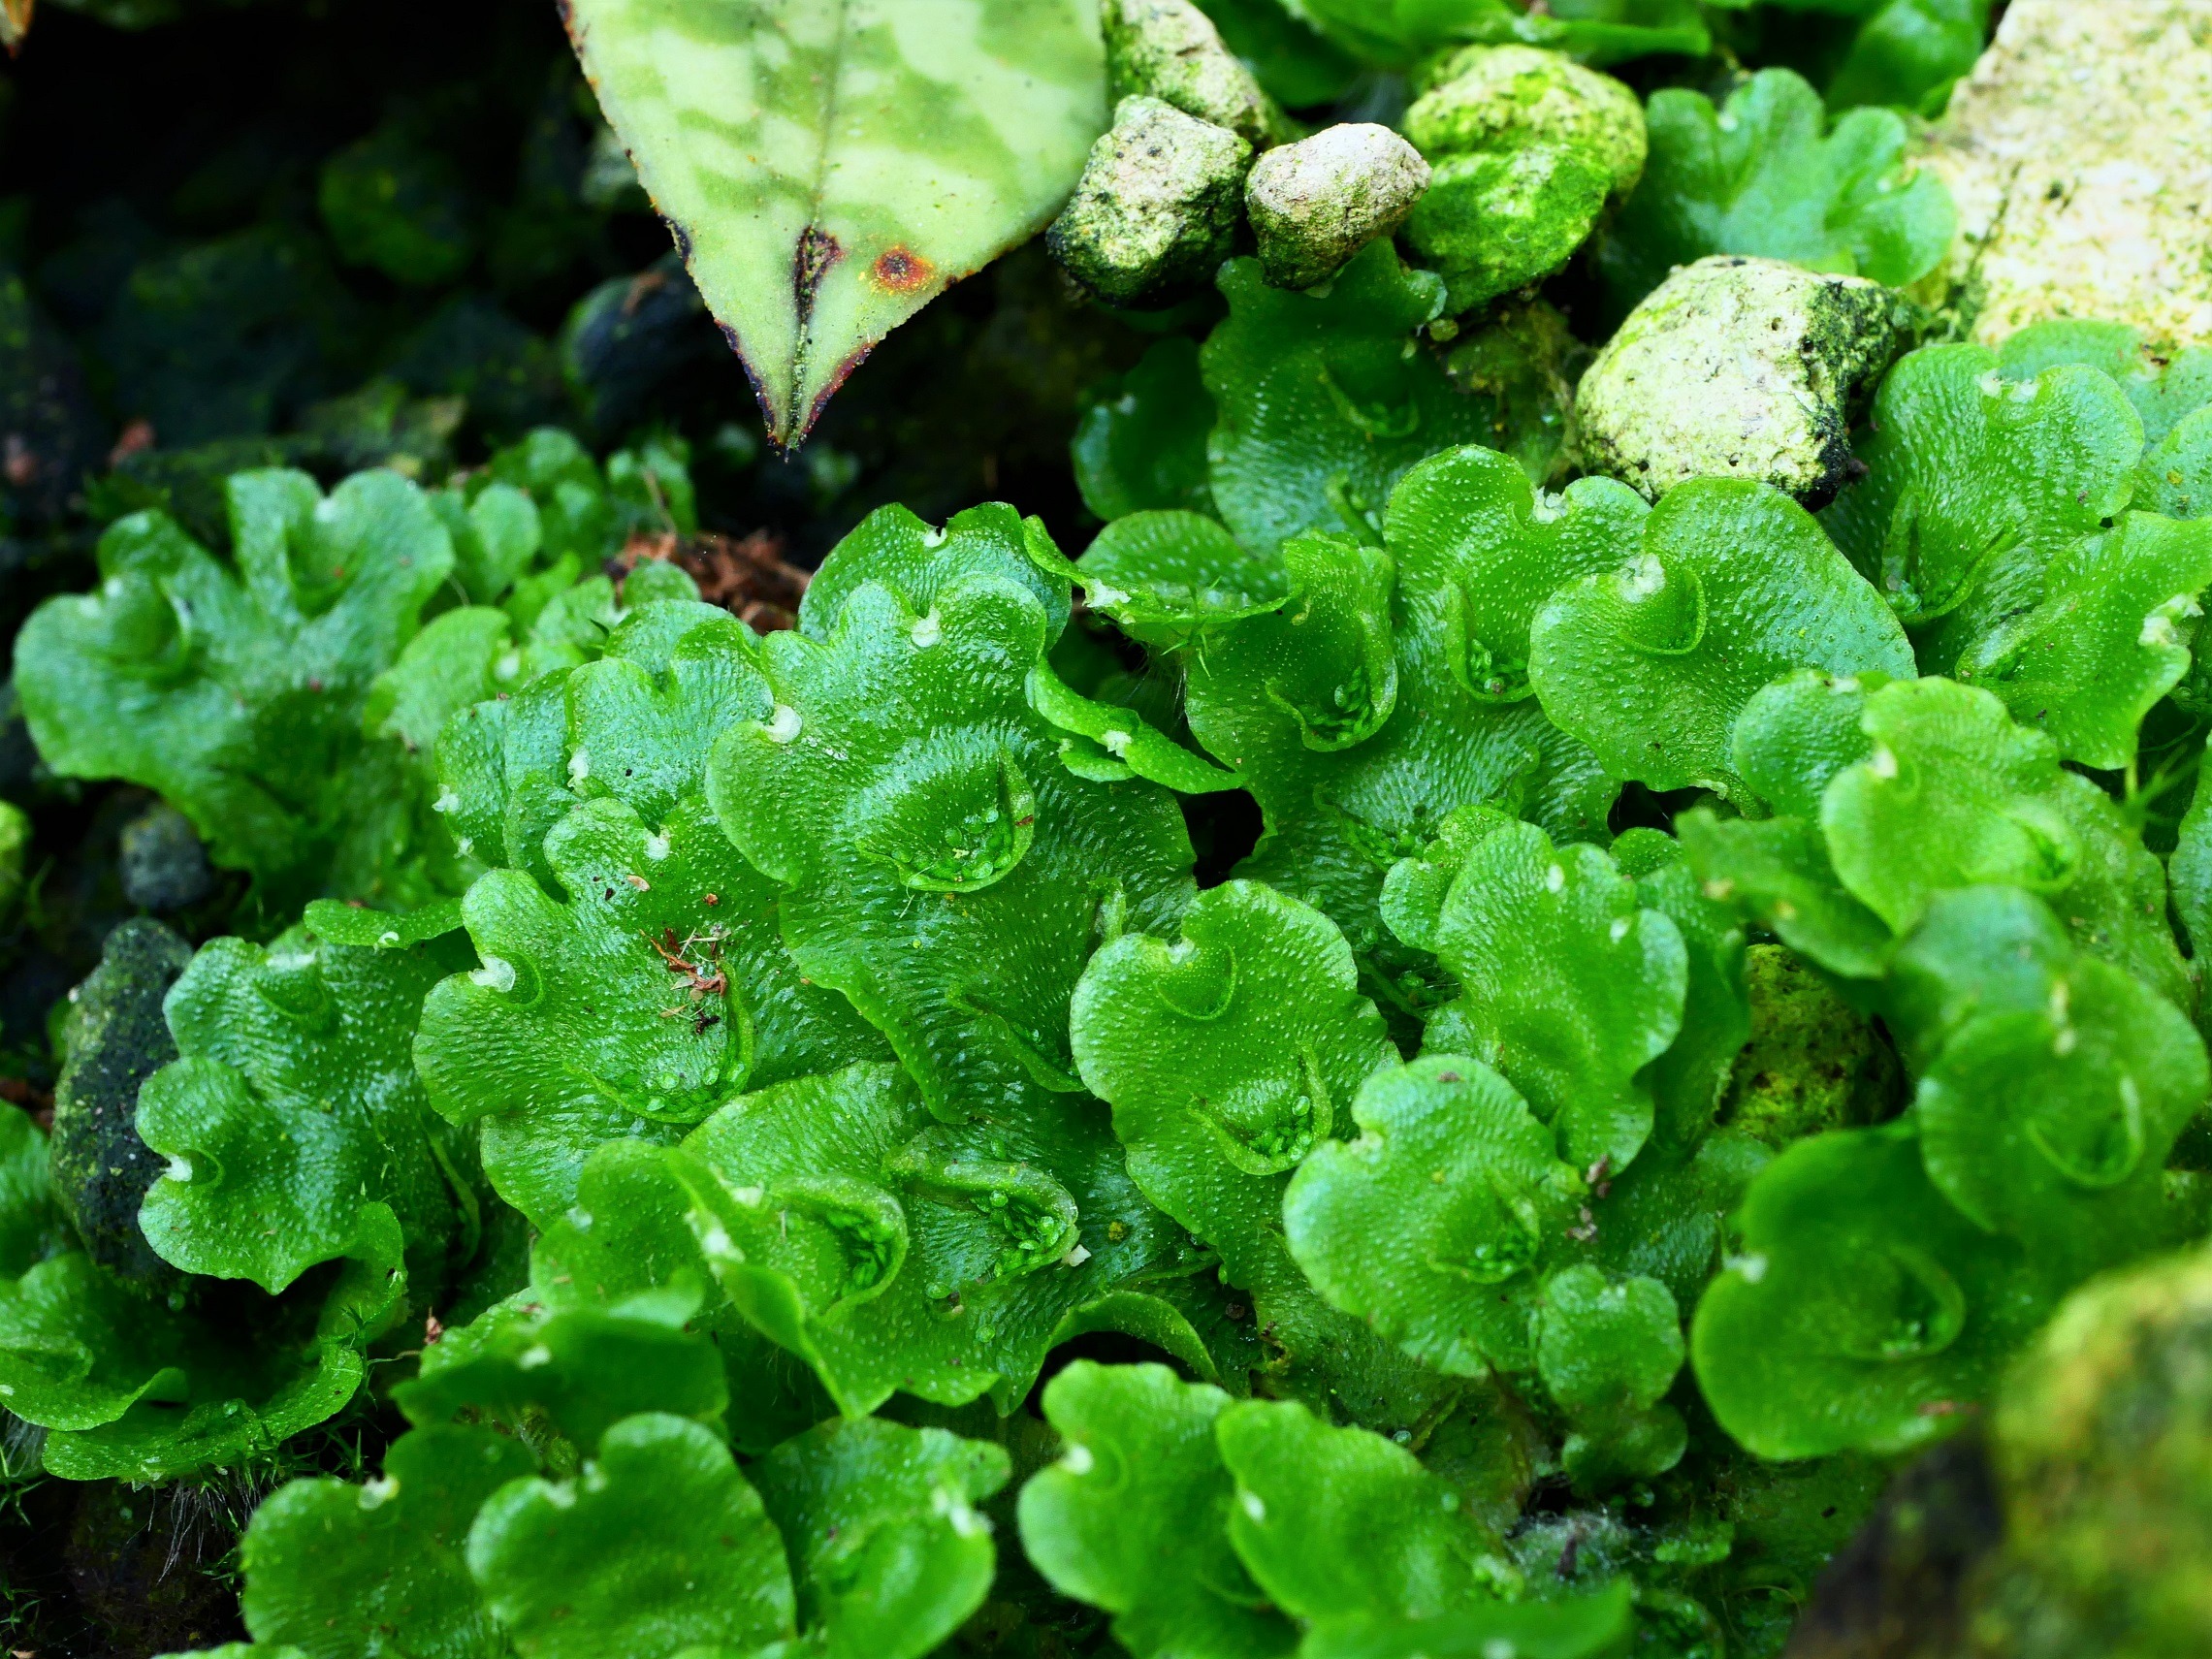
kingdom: Plantae
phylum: Marchantiophyta
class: Marchantiopsida
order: Lunulariales
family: Lunulariaceae
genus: Lunularia
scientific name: Lunularia cruciata
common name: Almindelig månemos
